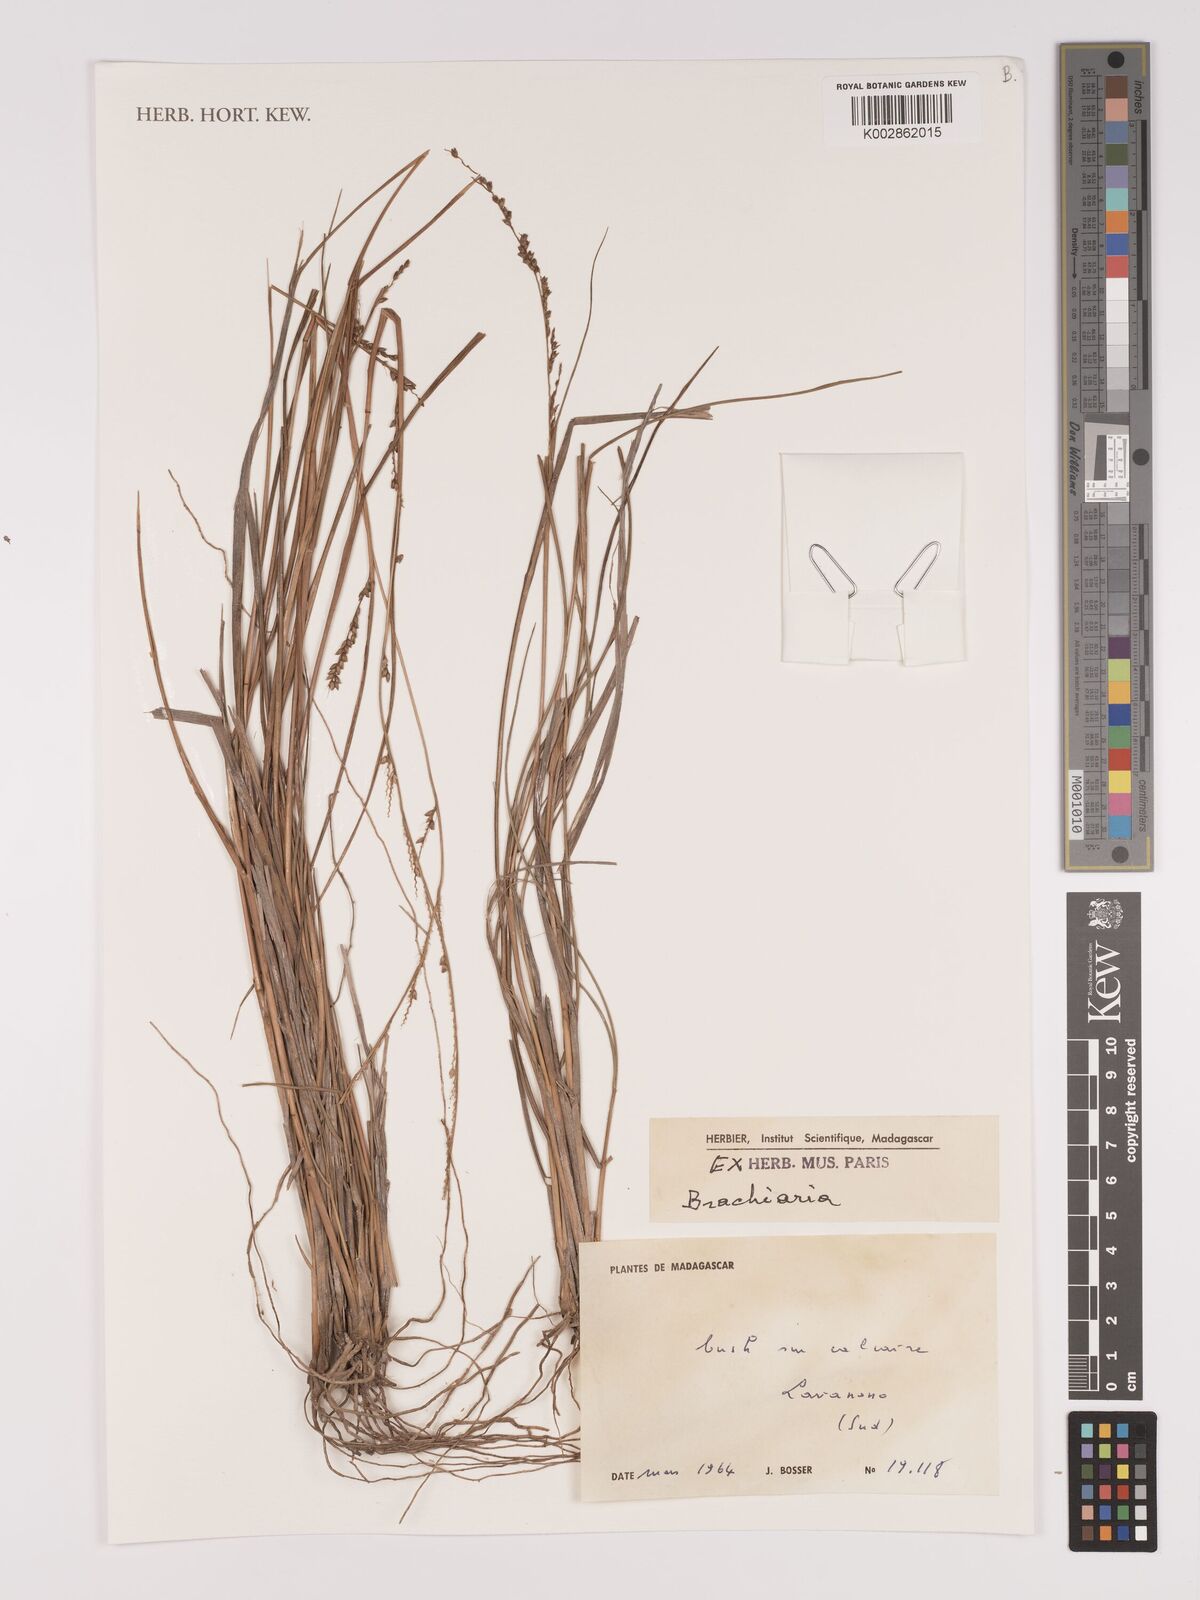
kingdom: Plantae
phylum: Tracheophyta
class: Liliopsida
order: Poales
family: Poaceae
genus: Setaria
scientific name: Setaria scottii
